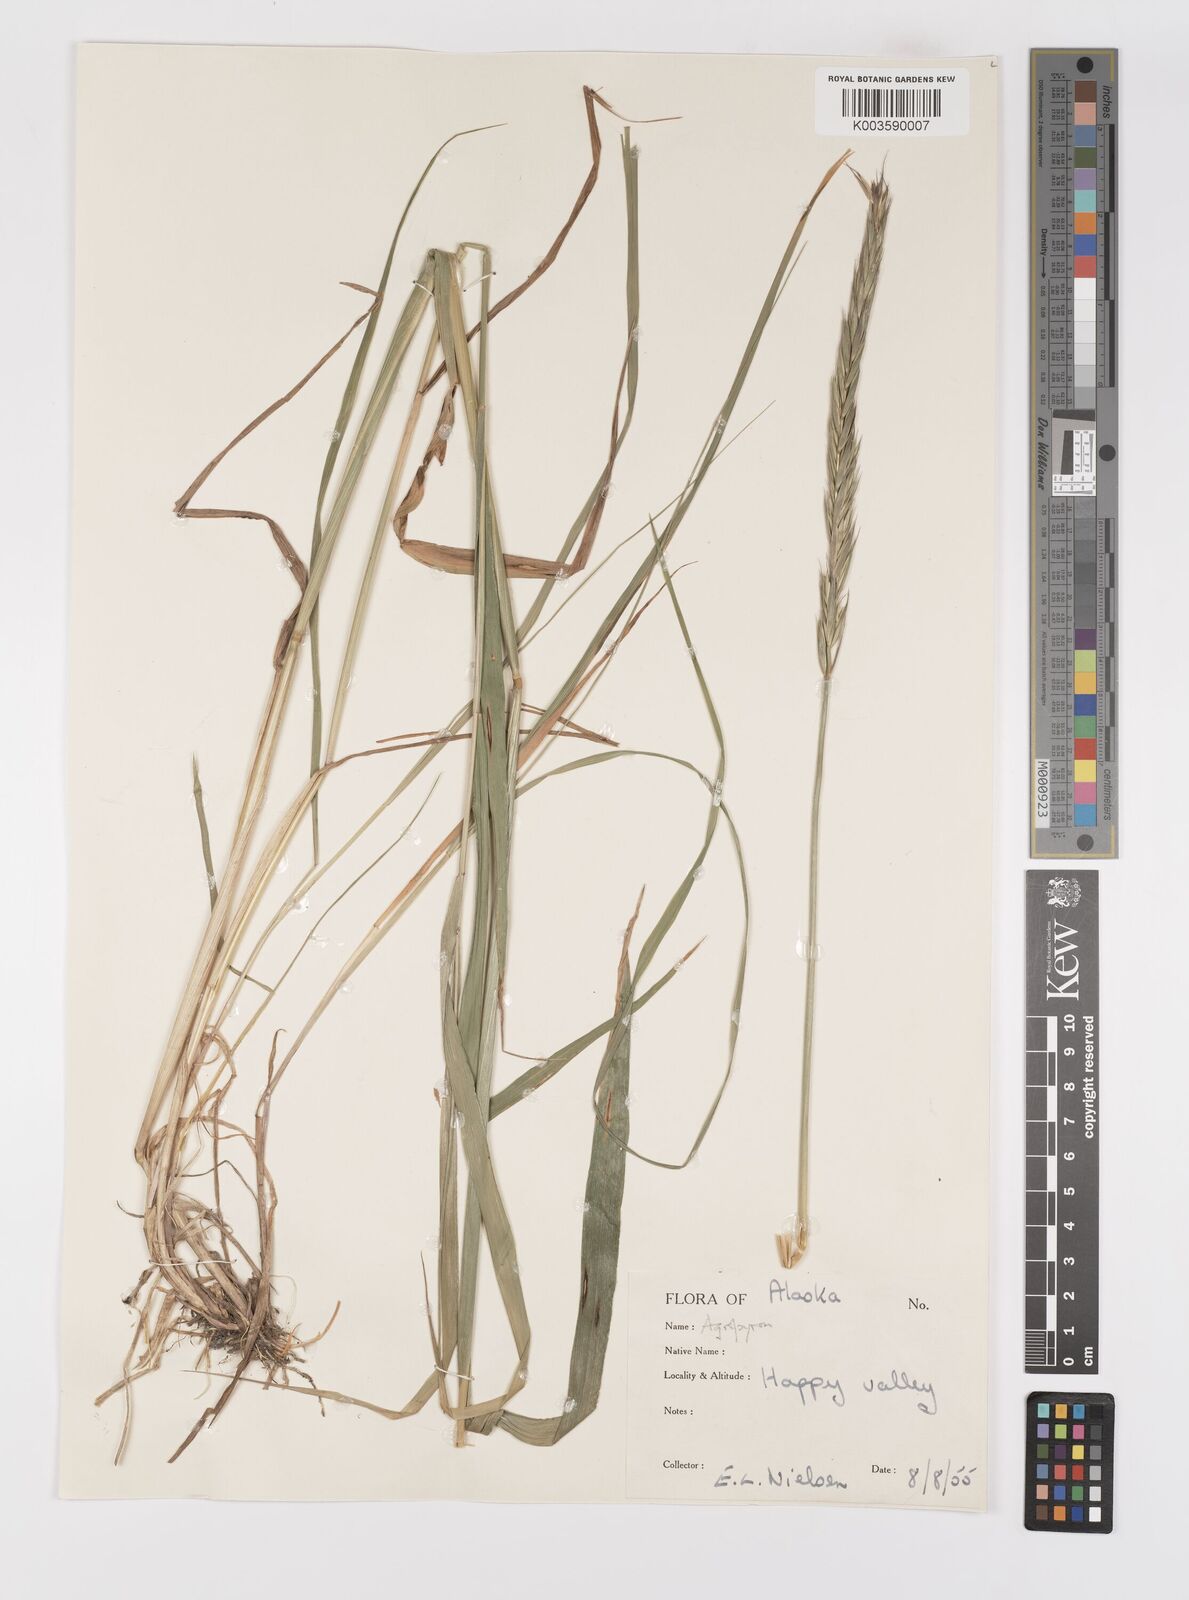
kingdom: Plantae
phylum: Tracheophyta
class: Liliopsida
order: Poales
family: Poaceae
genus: Elymus
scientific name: Elymus repens
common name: Quackgrass
